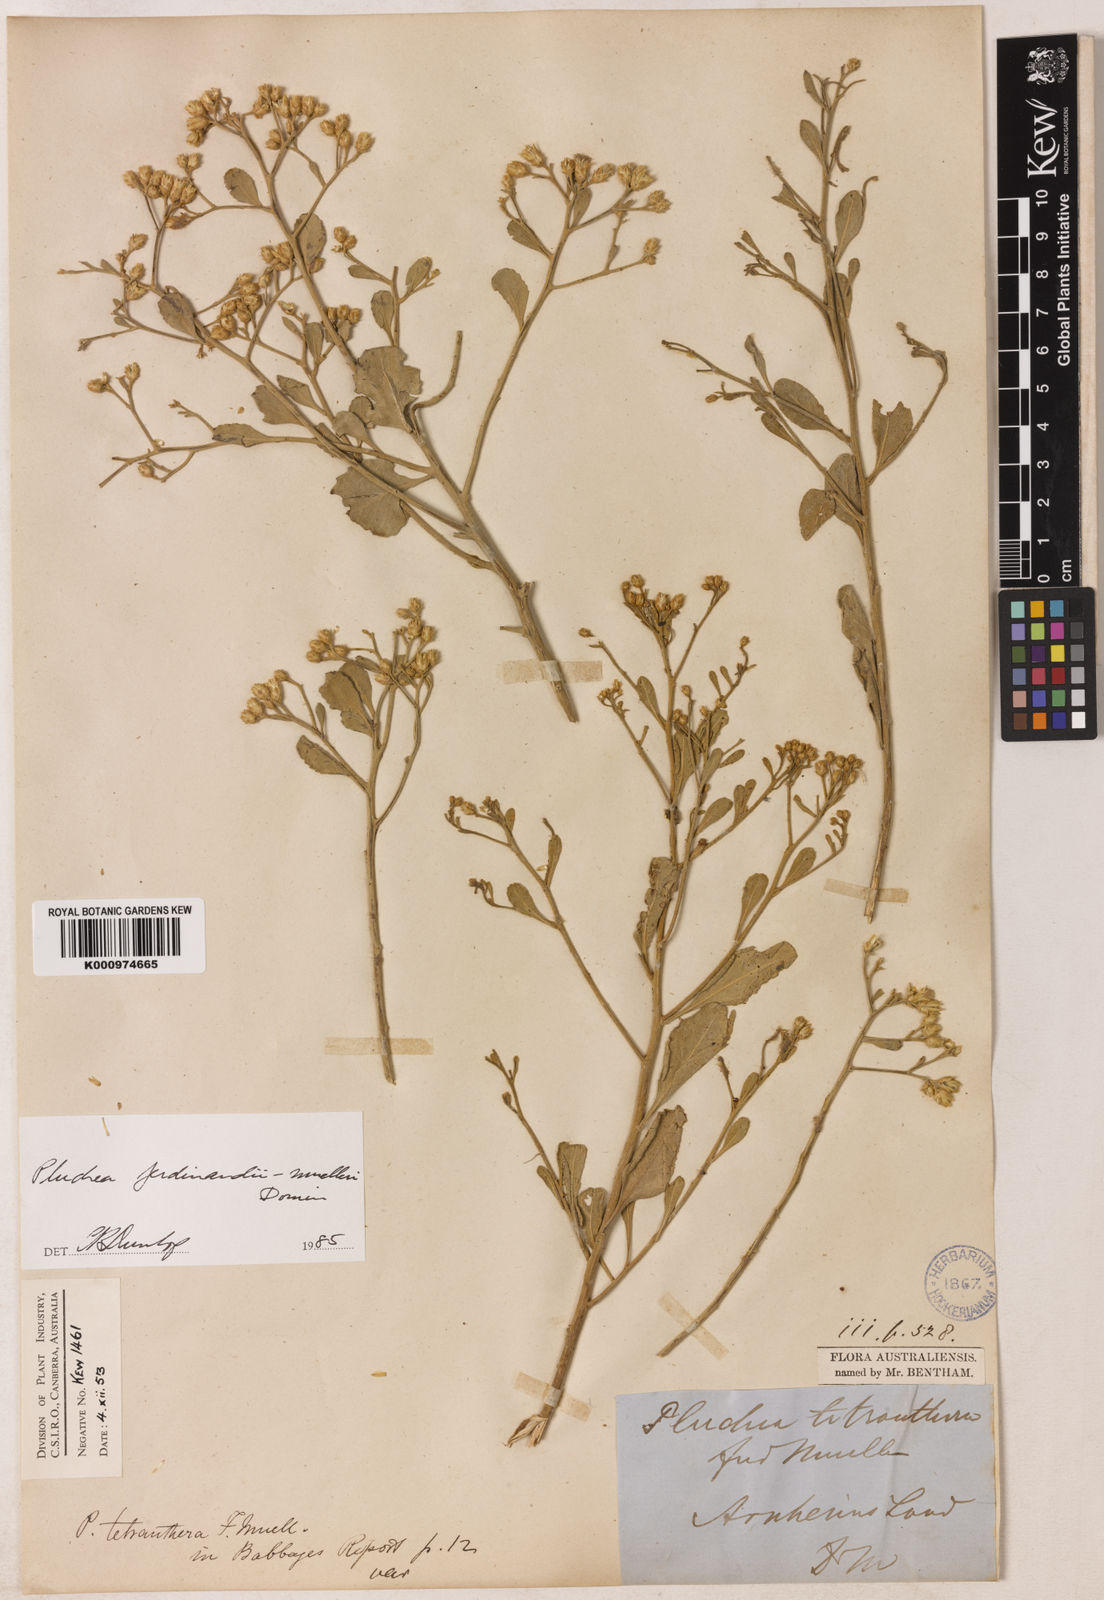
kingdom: Plantae
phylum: Tracheophyta
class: Magnoliopsida
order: Asterales
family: Asteraceae
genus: Pluchea
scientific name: Pluchea ferdinandi-muelleri
